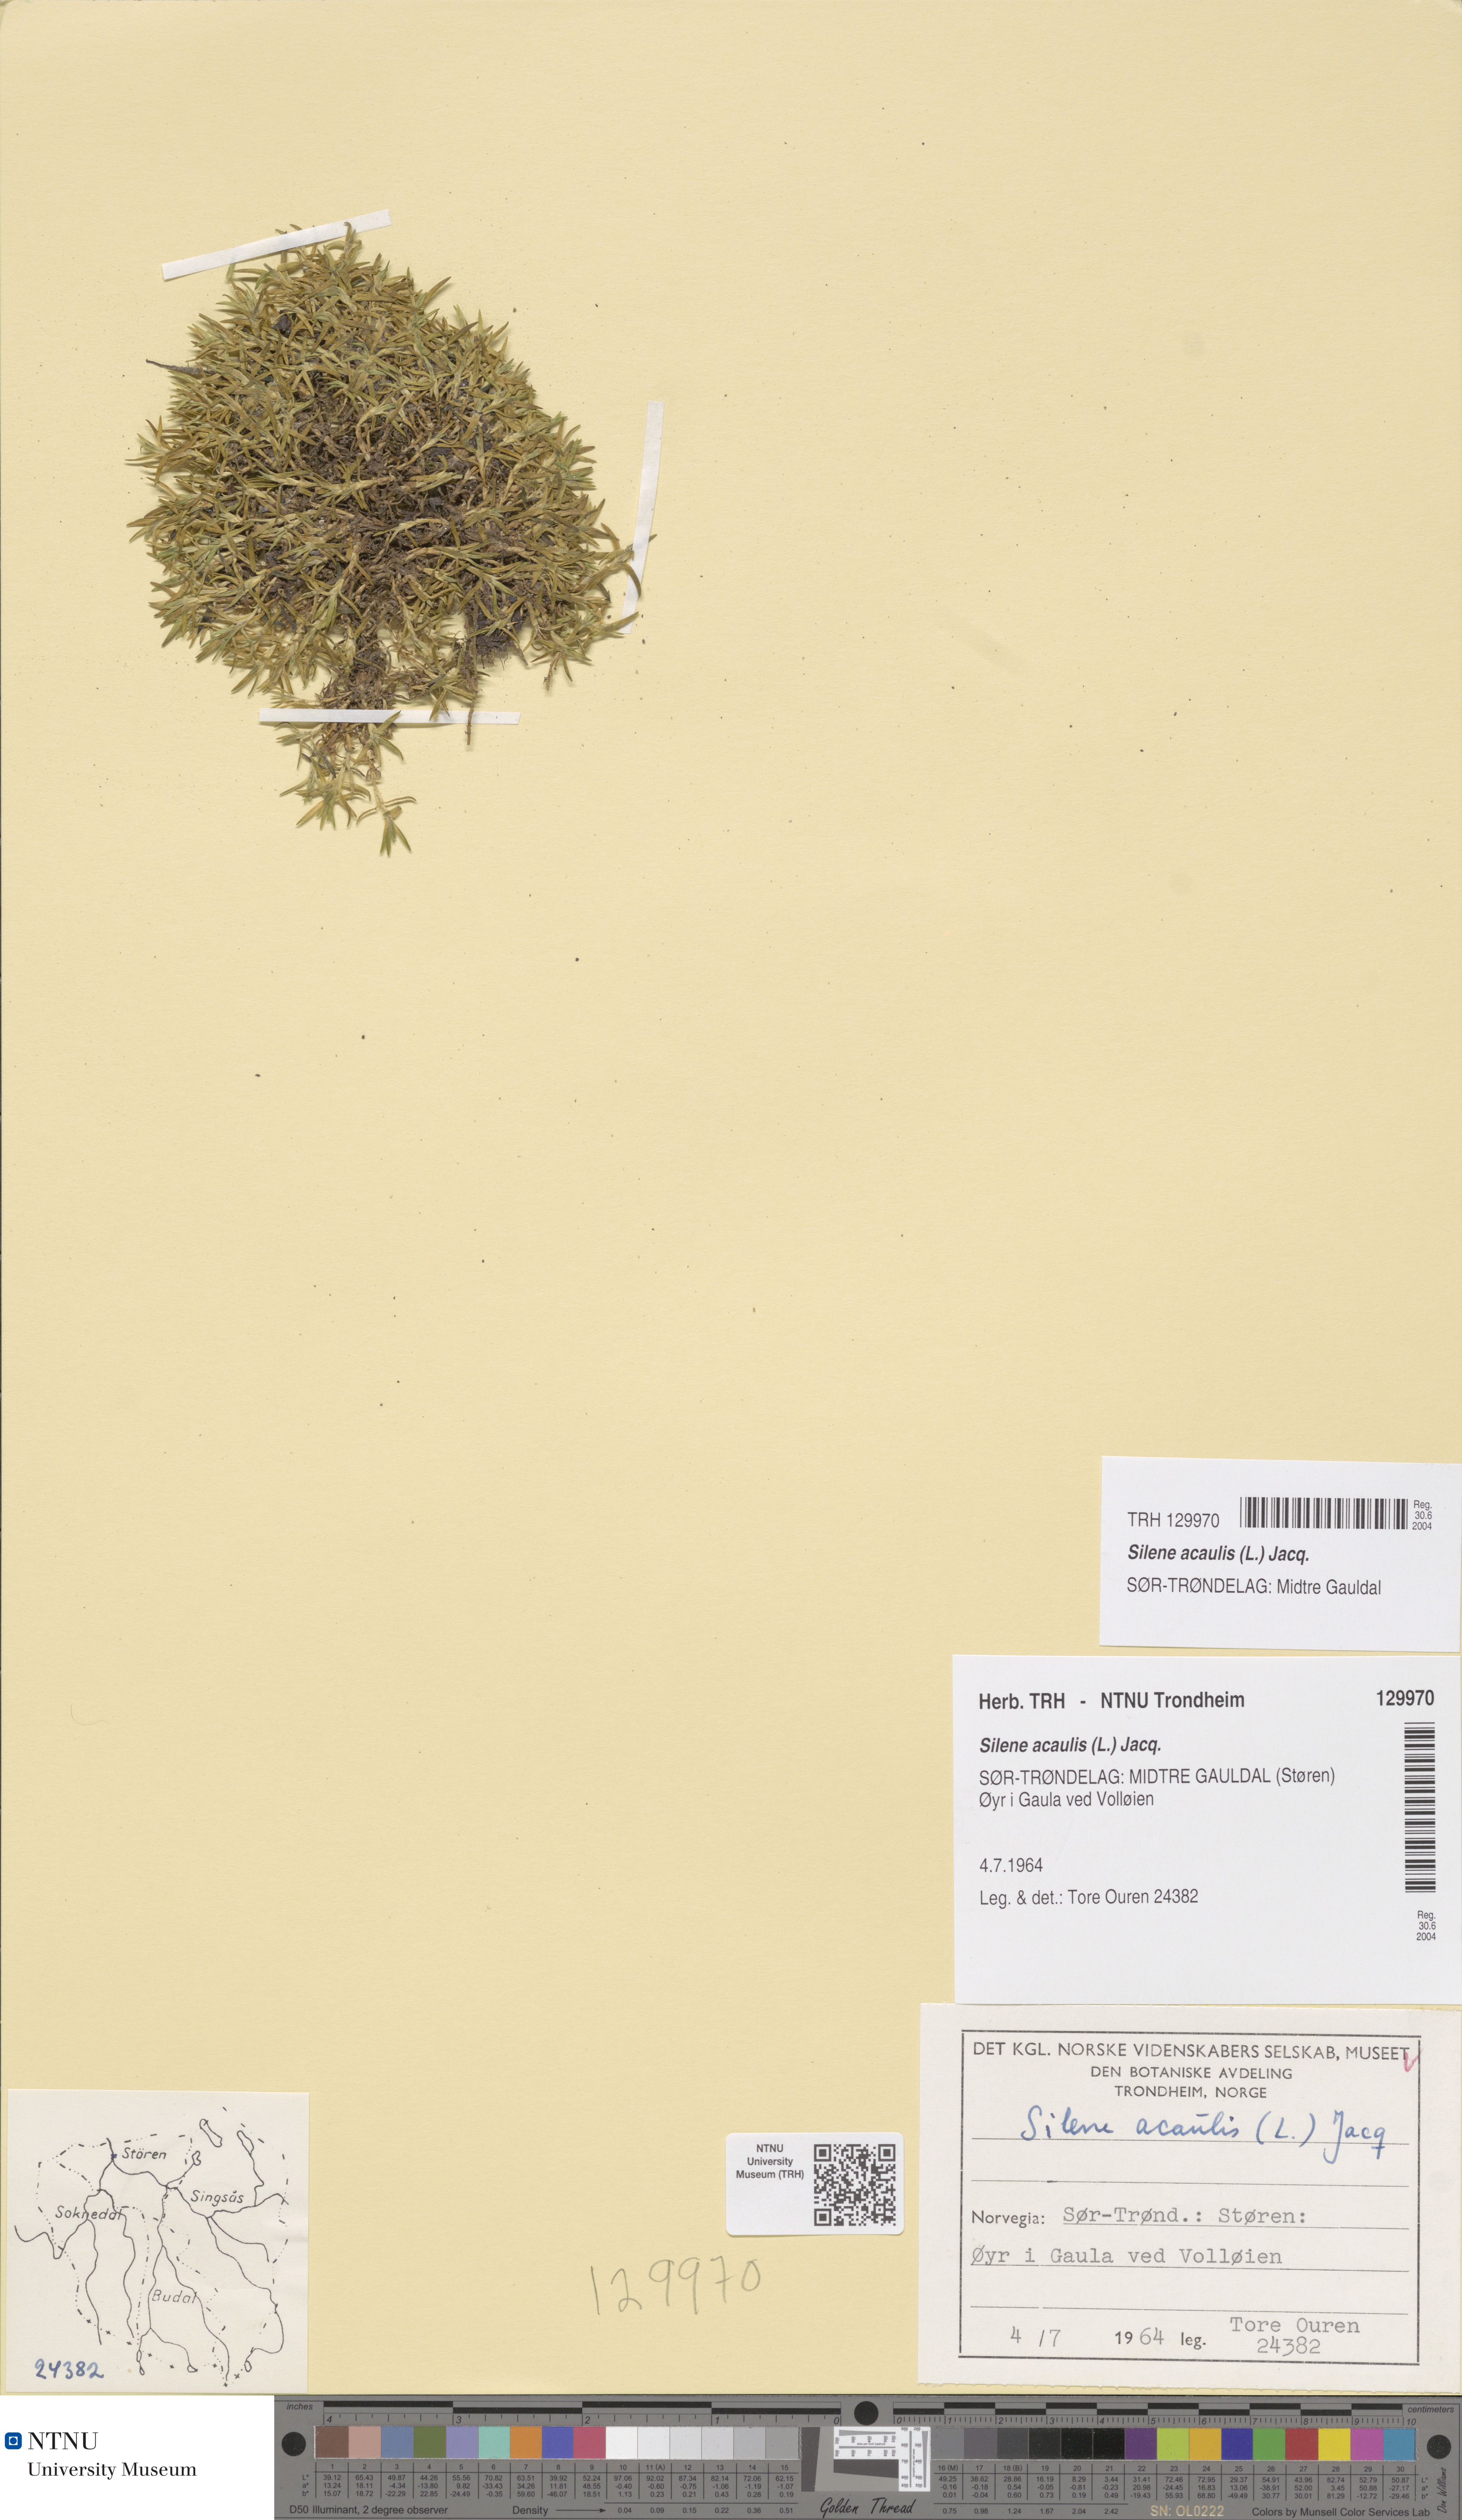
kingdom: Plantae
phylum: Tracheophyta
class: Magnoliopsida
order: Caryophyllales
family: Caryophyllaceae
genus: Silene
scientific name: Silene acaulis
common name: Moss campion
